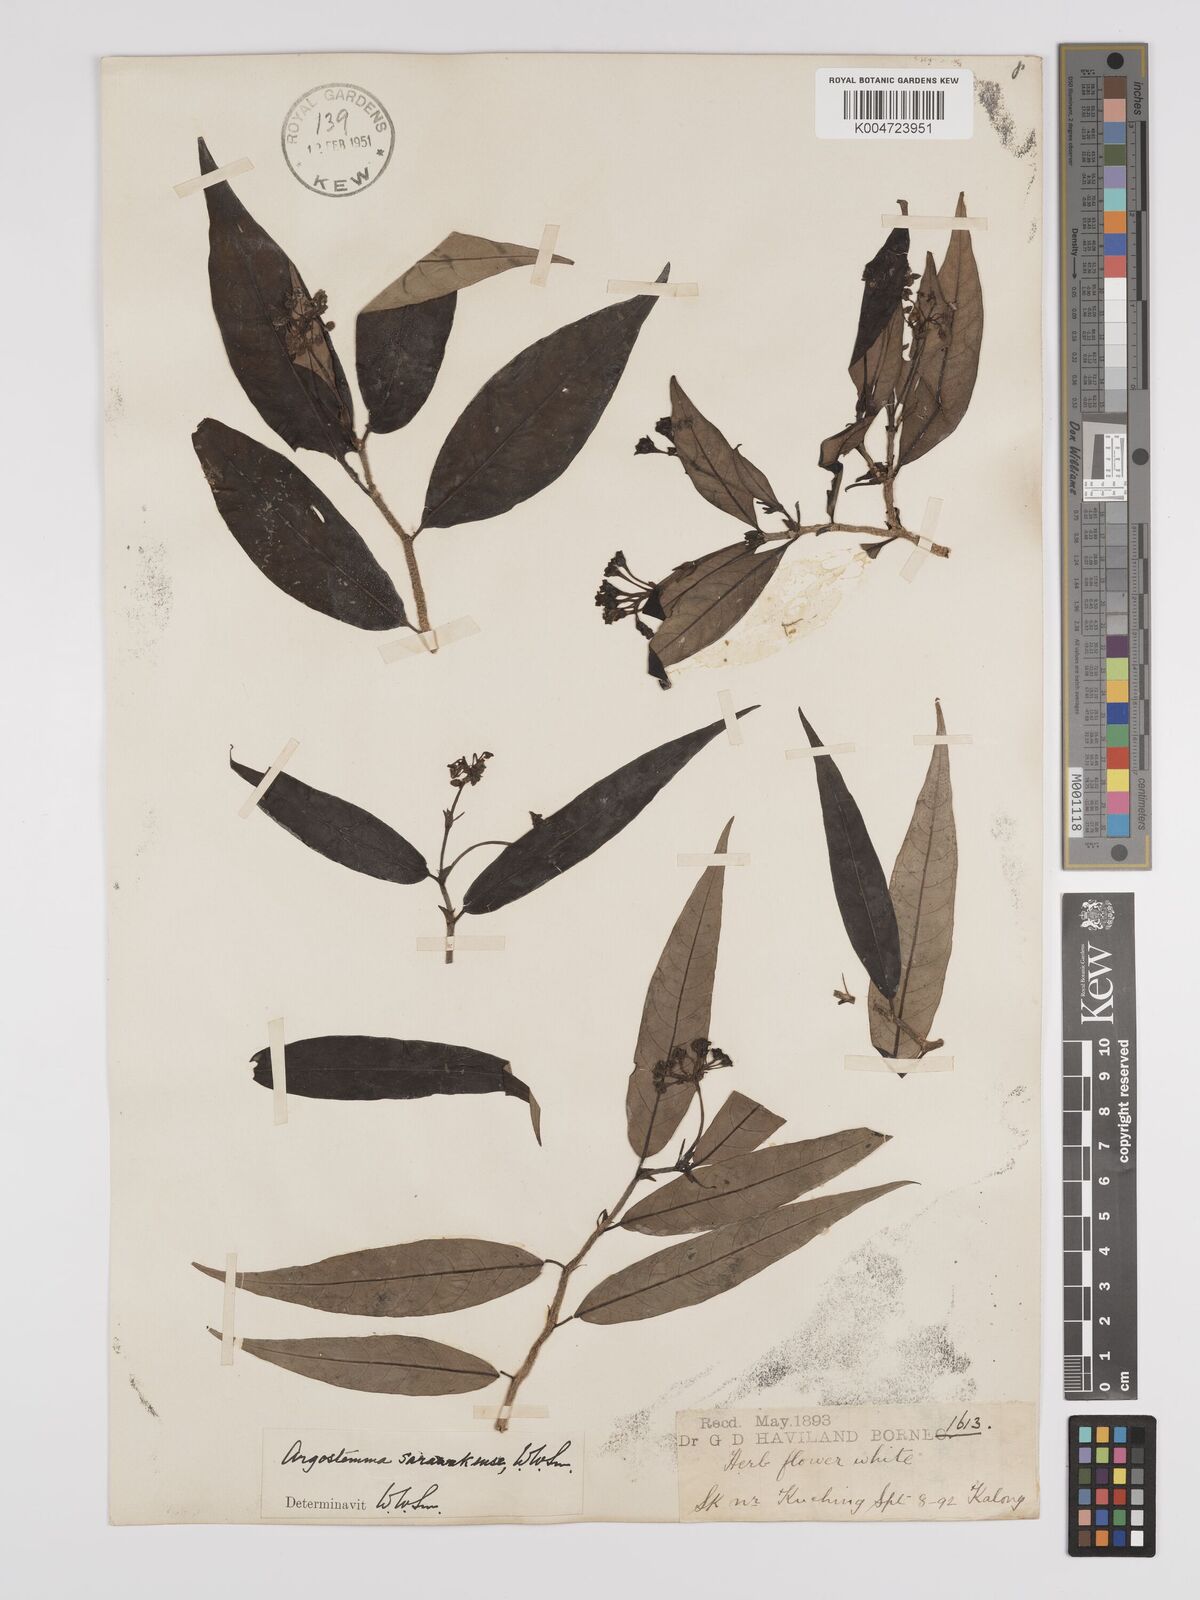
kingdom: Plantae
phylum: Tracheophyta
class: Magnoliopsida
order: Gentianales
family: Rubiaceae
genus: Argostemma
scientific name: Argostemma havilandii
